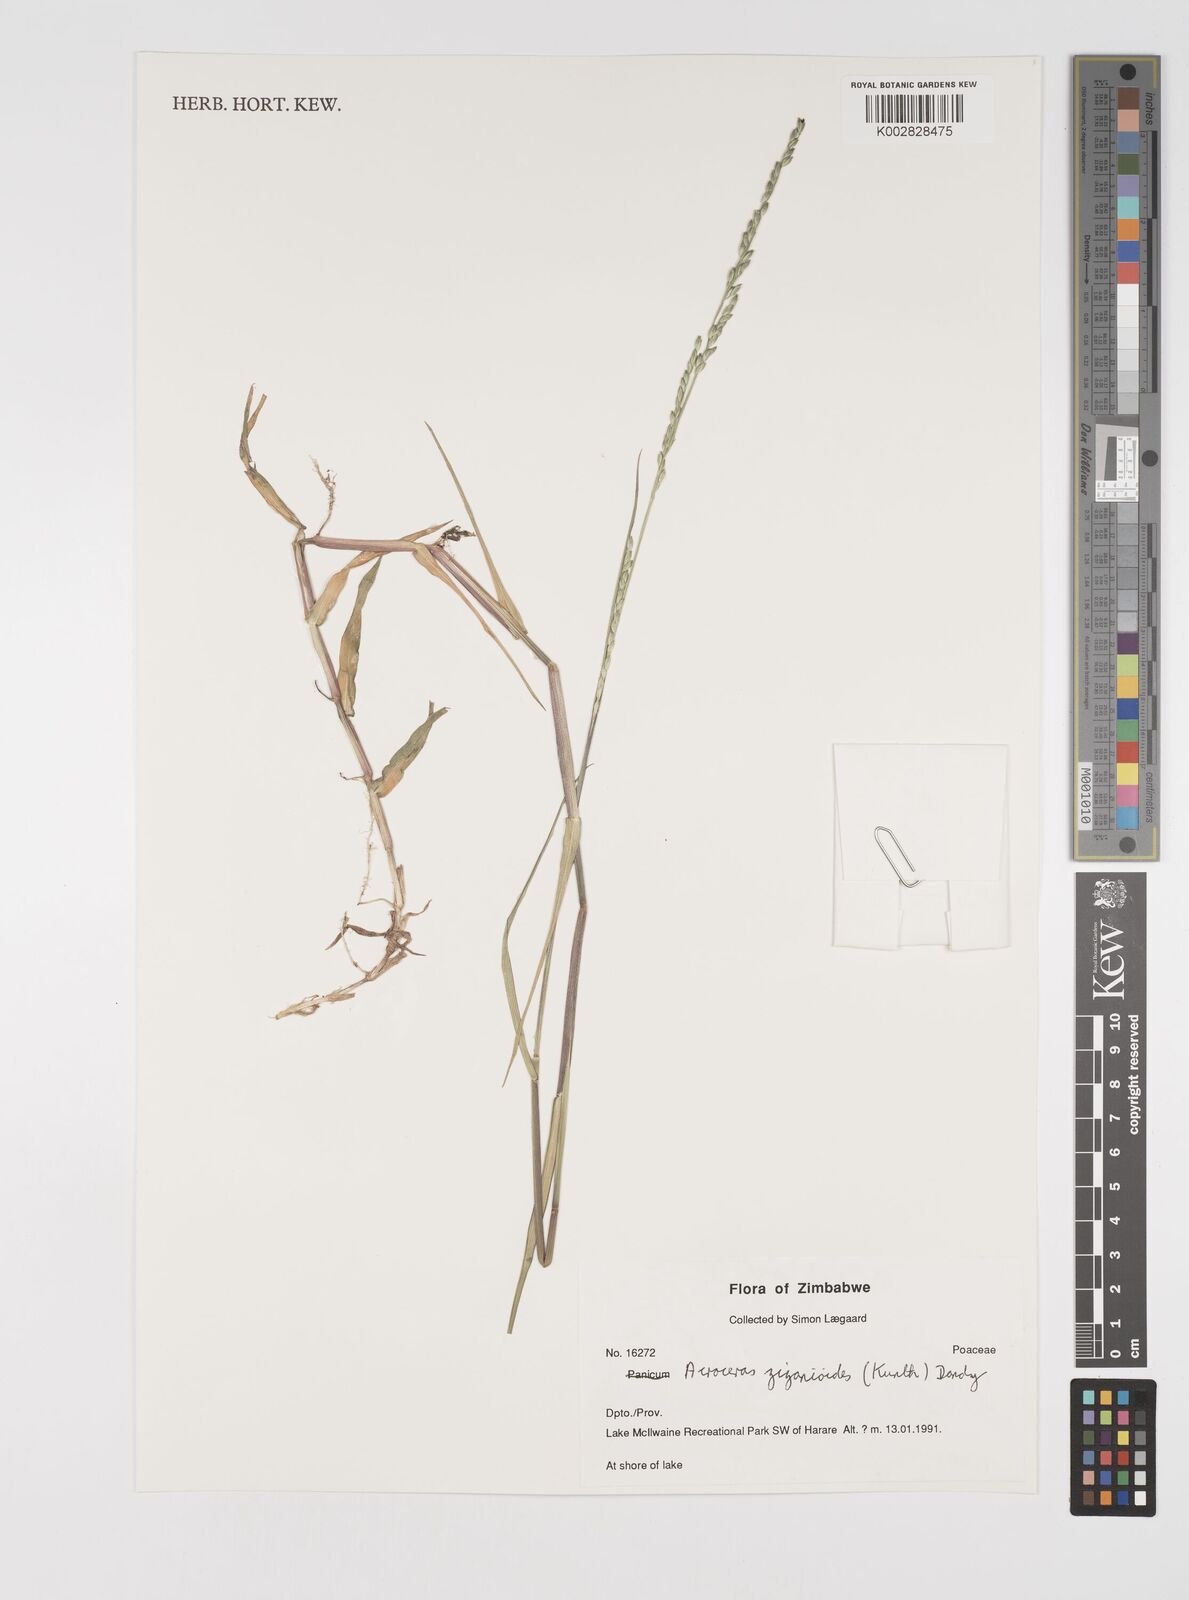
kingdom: Plantae
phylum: Tracheophyta
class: Liliopsida
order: Poales
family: Poaceae
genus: Acroceras
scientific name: Acroceras zizanioides
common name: Oat grass
